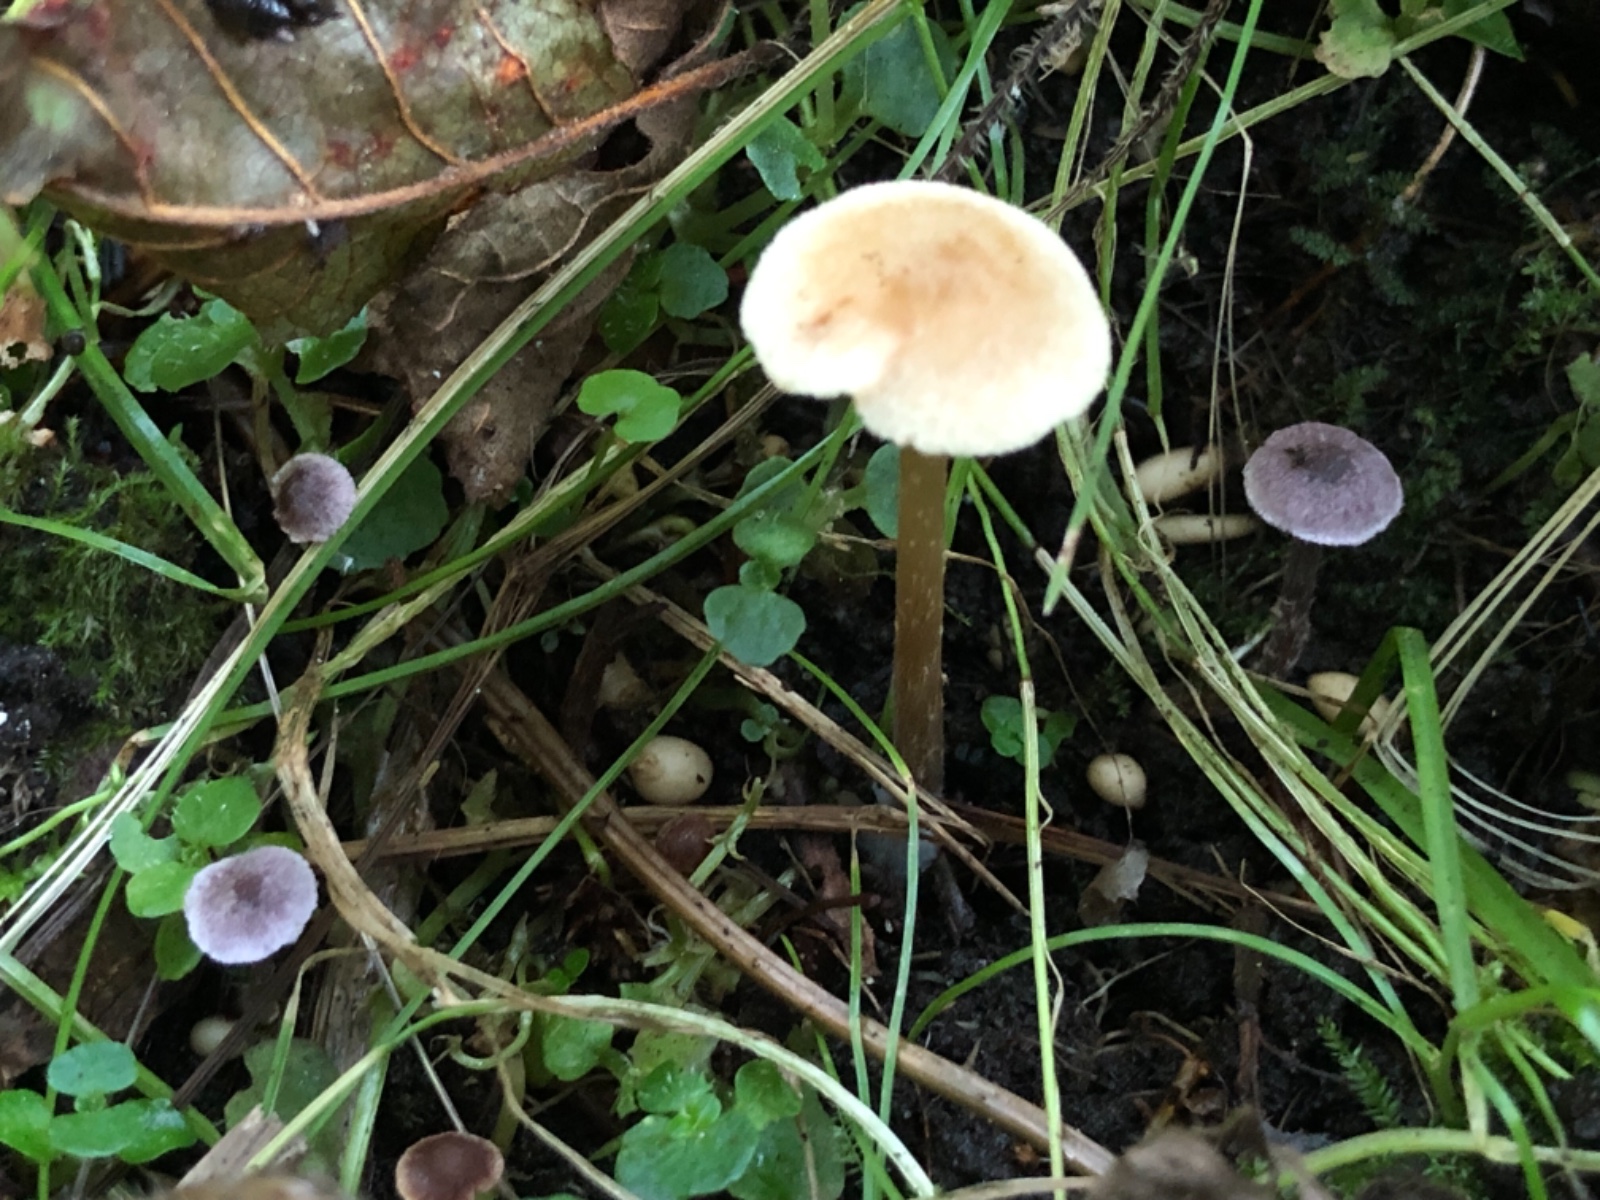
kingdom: Fungi
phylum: Basidiomycota
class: Agaricomycetes
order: Agaricales
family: Cortinariaceae
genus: Cortinarius
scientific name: Cortinarius bibulus
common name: smuk slørhat
